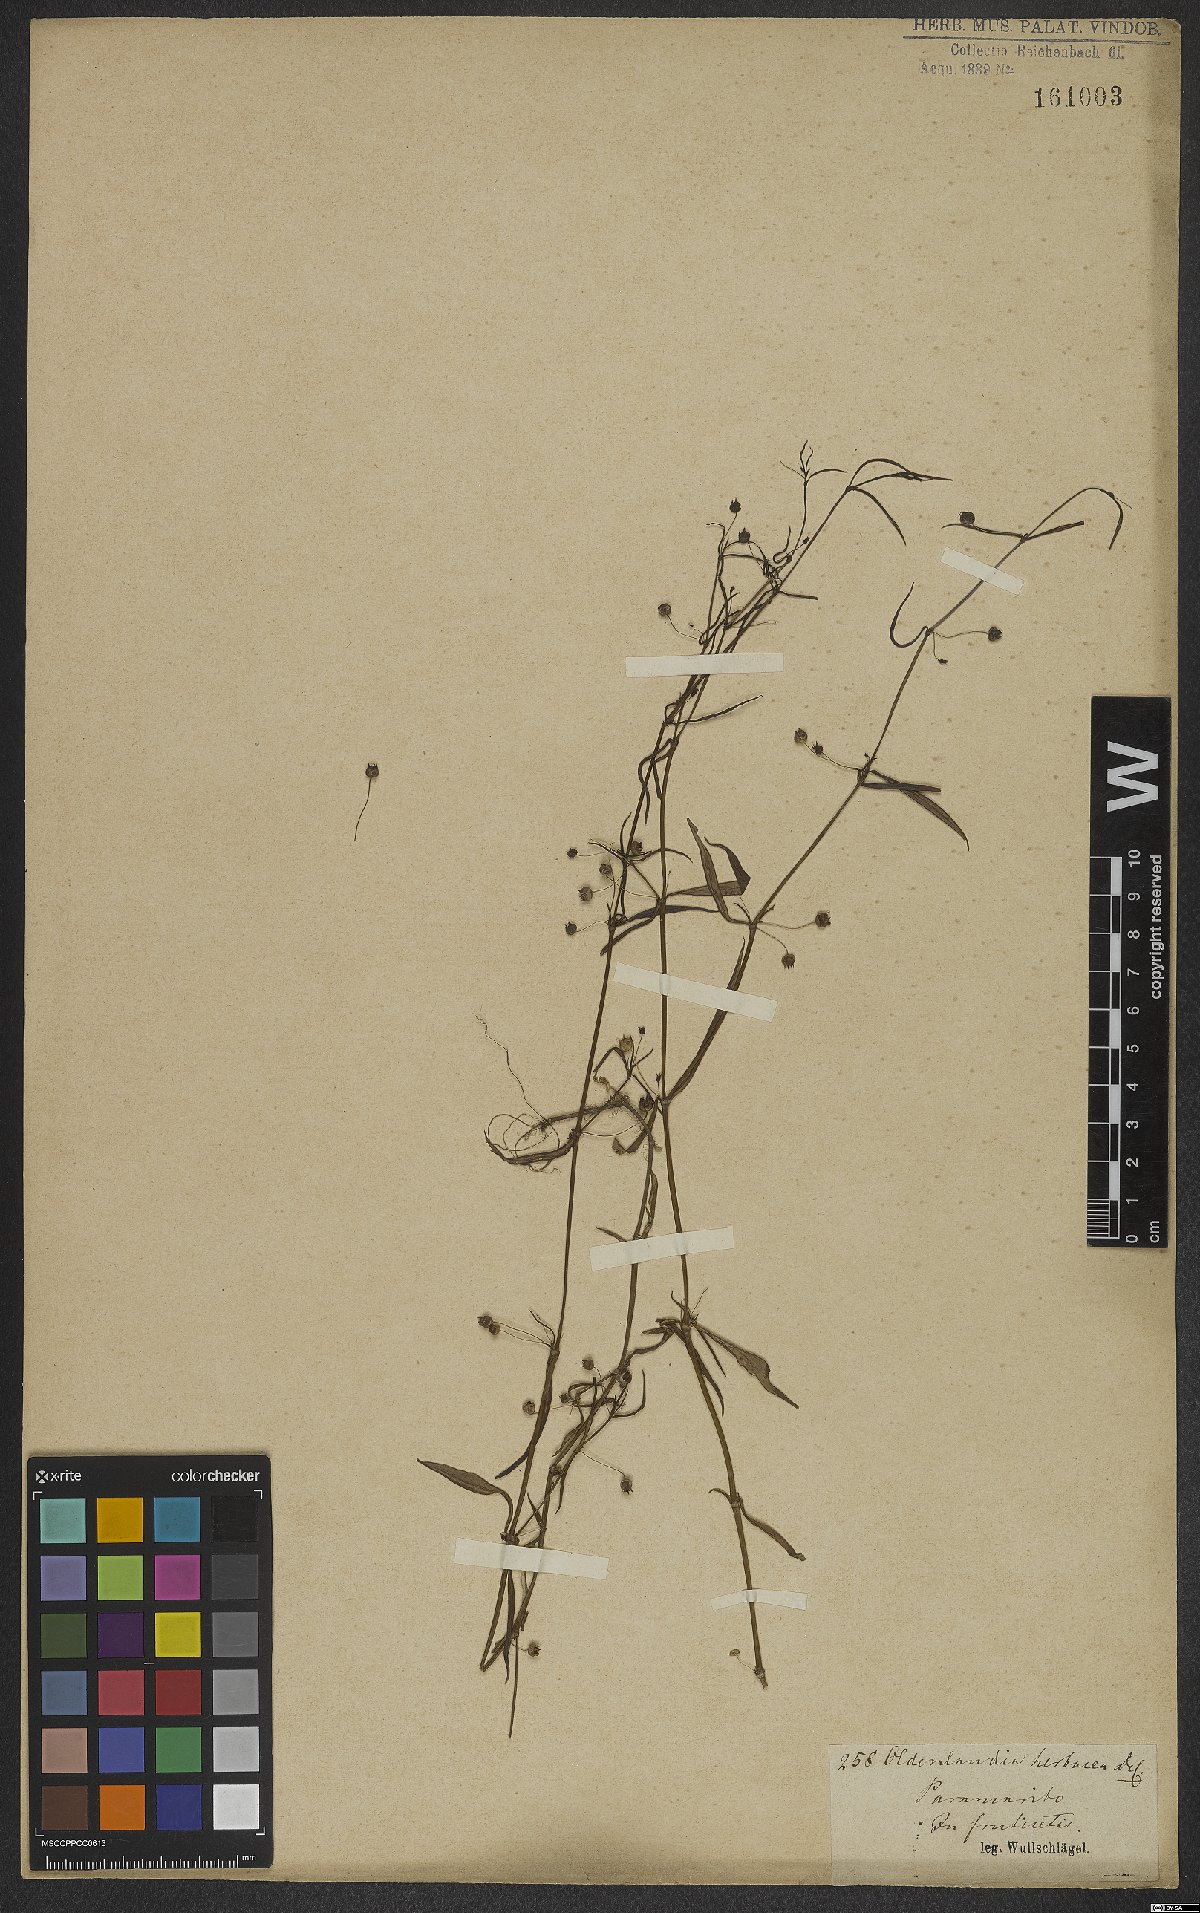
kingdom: Plantae
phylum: Tracheophyta
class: Magnoliopsida
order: Gentianales
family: Rubiaceae
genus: Oldenlandia
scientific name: Oldenlandia herbacea
